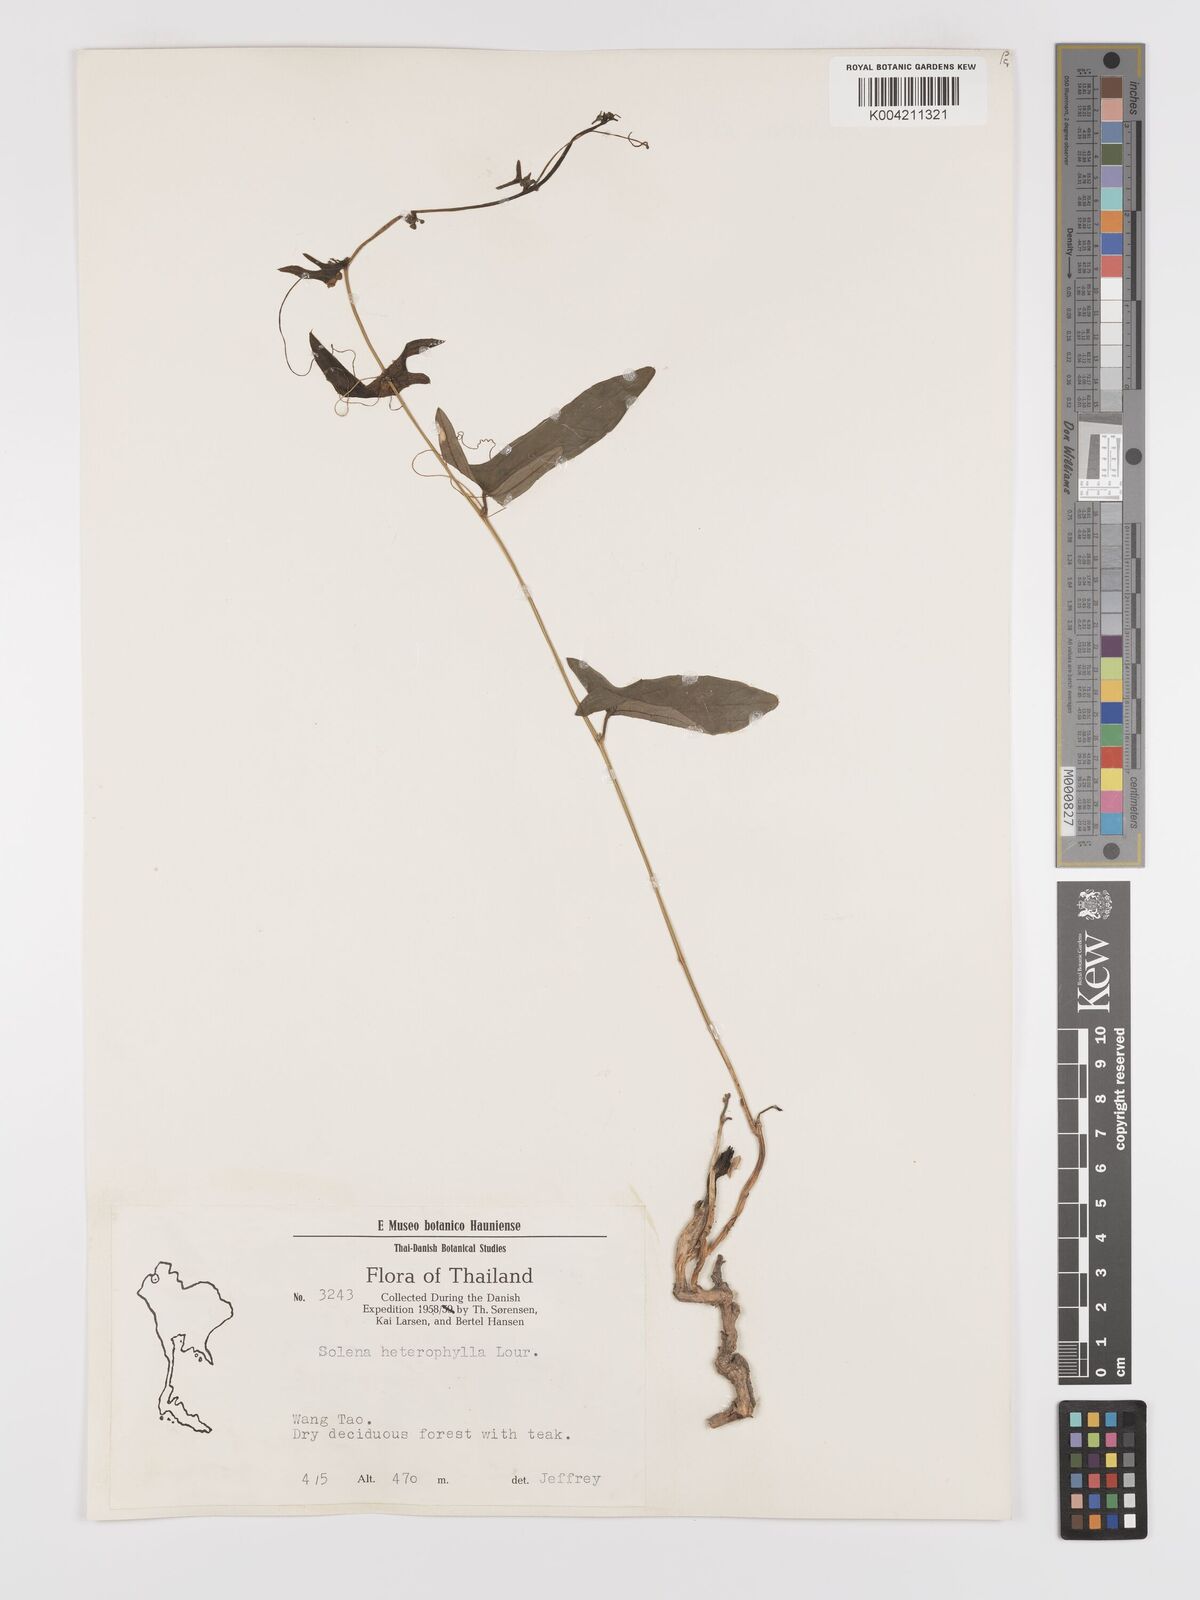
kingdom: Plantae
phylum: Tracheophyta
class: Magnoliopsida
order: Cucurbitales
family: Cucurbitaceae
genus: Solena
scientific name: Solena amplexicaulis
